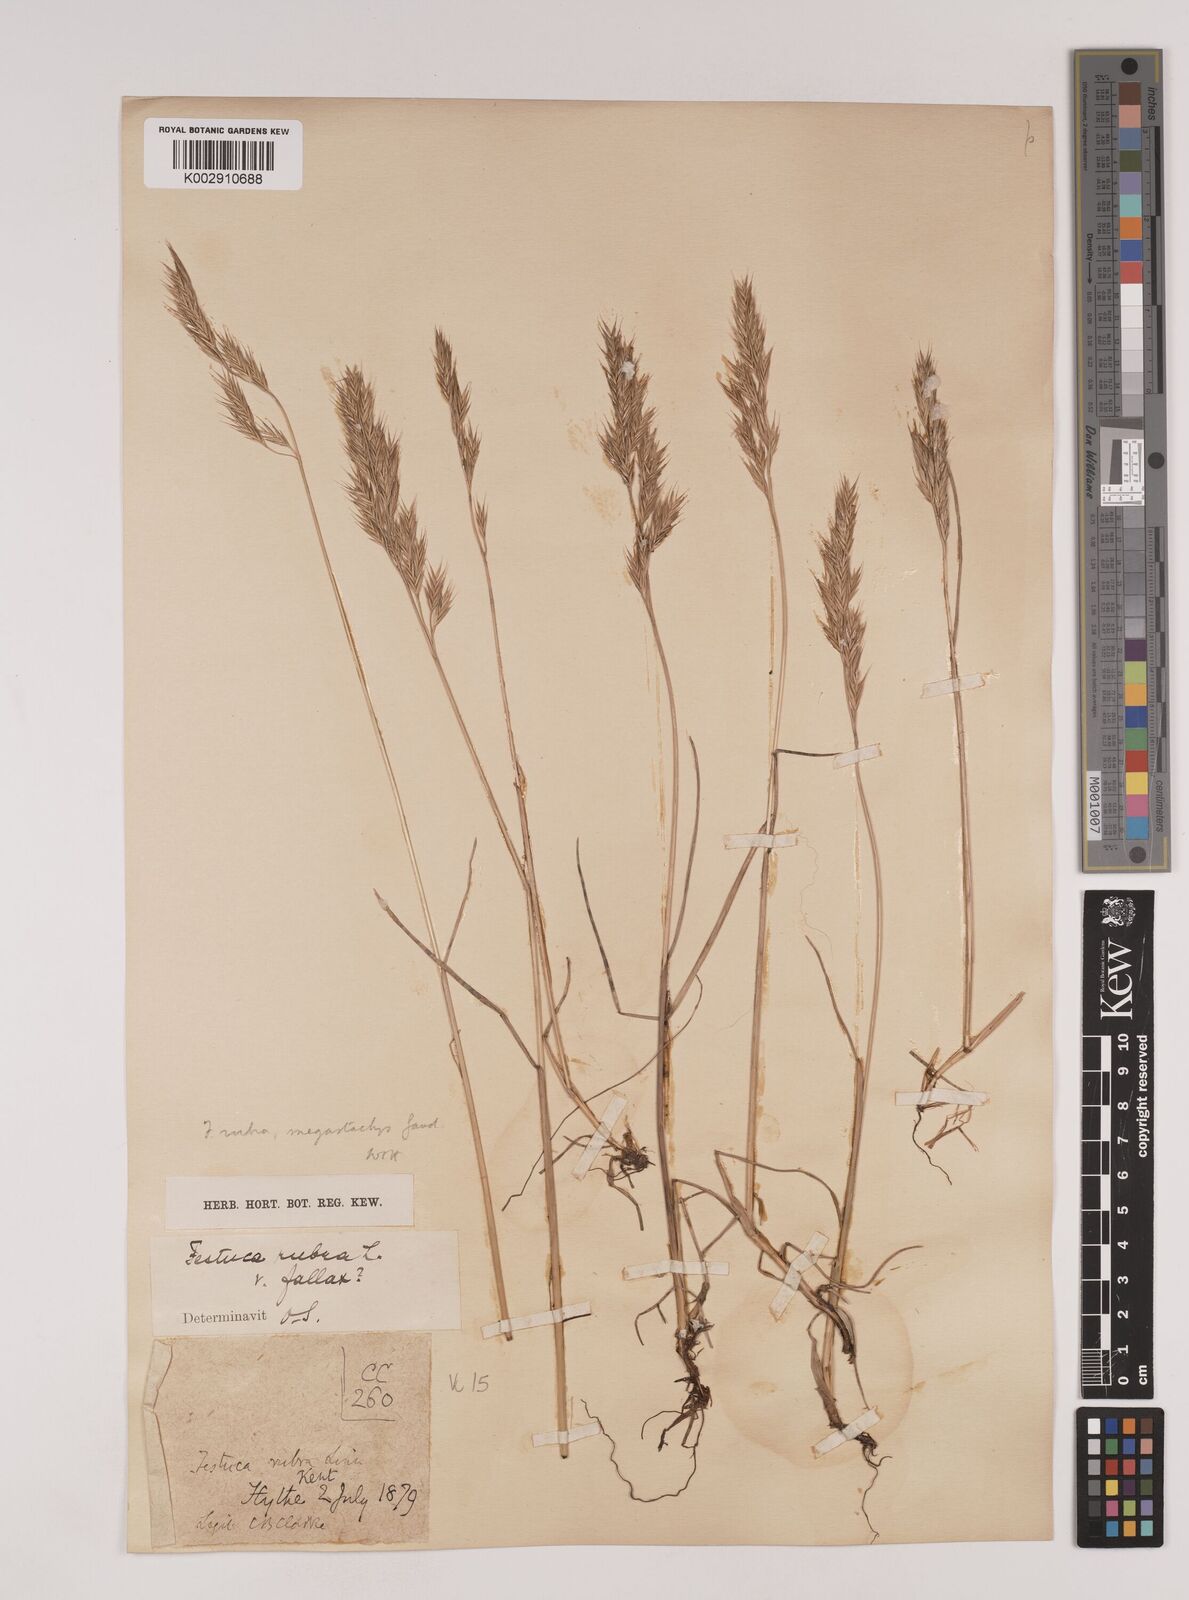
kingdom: Plantae
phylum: Tracheophyta
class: Liliopsida
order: Poales
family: Poaceae
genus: Festuca
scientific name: Festuca rubra
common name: Red fescue
